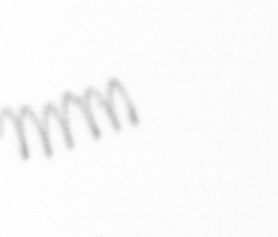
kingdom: Chromista
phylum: Ochrophyta
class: Bacillariophyceae
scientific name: Bacillariophyceae
